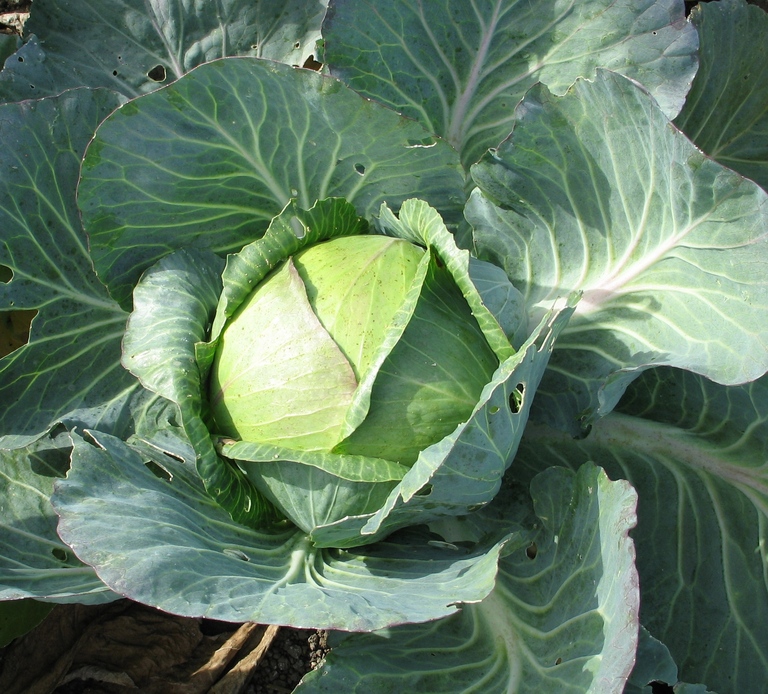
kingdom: Plantae
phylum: Tracheophyta
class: Magnoliopsida
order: Brassicales
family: Brassicaceae
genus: Brassica
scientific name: Brassica oleracea
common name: Cabbage
